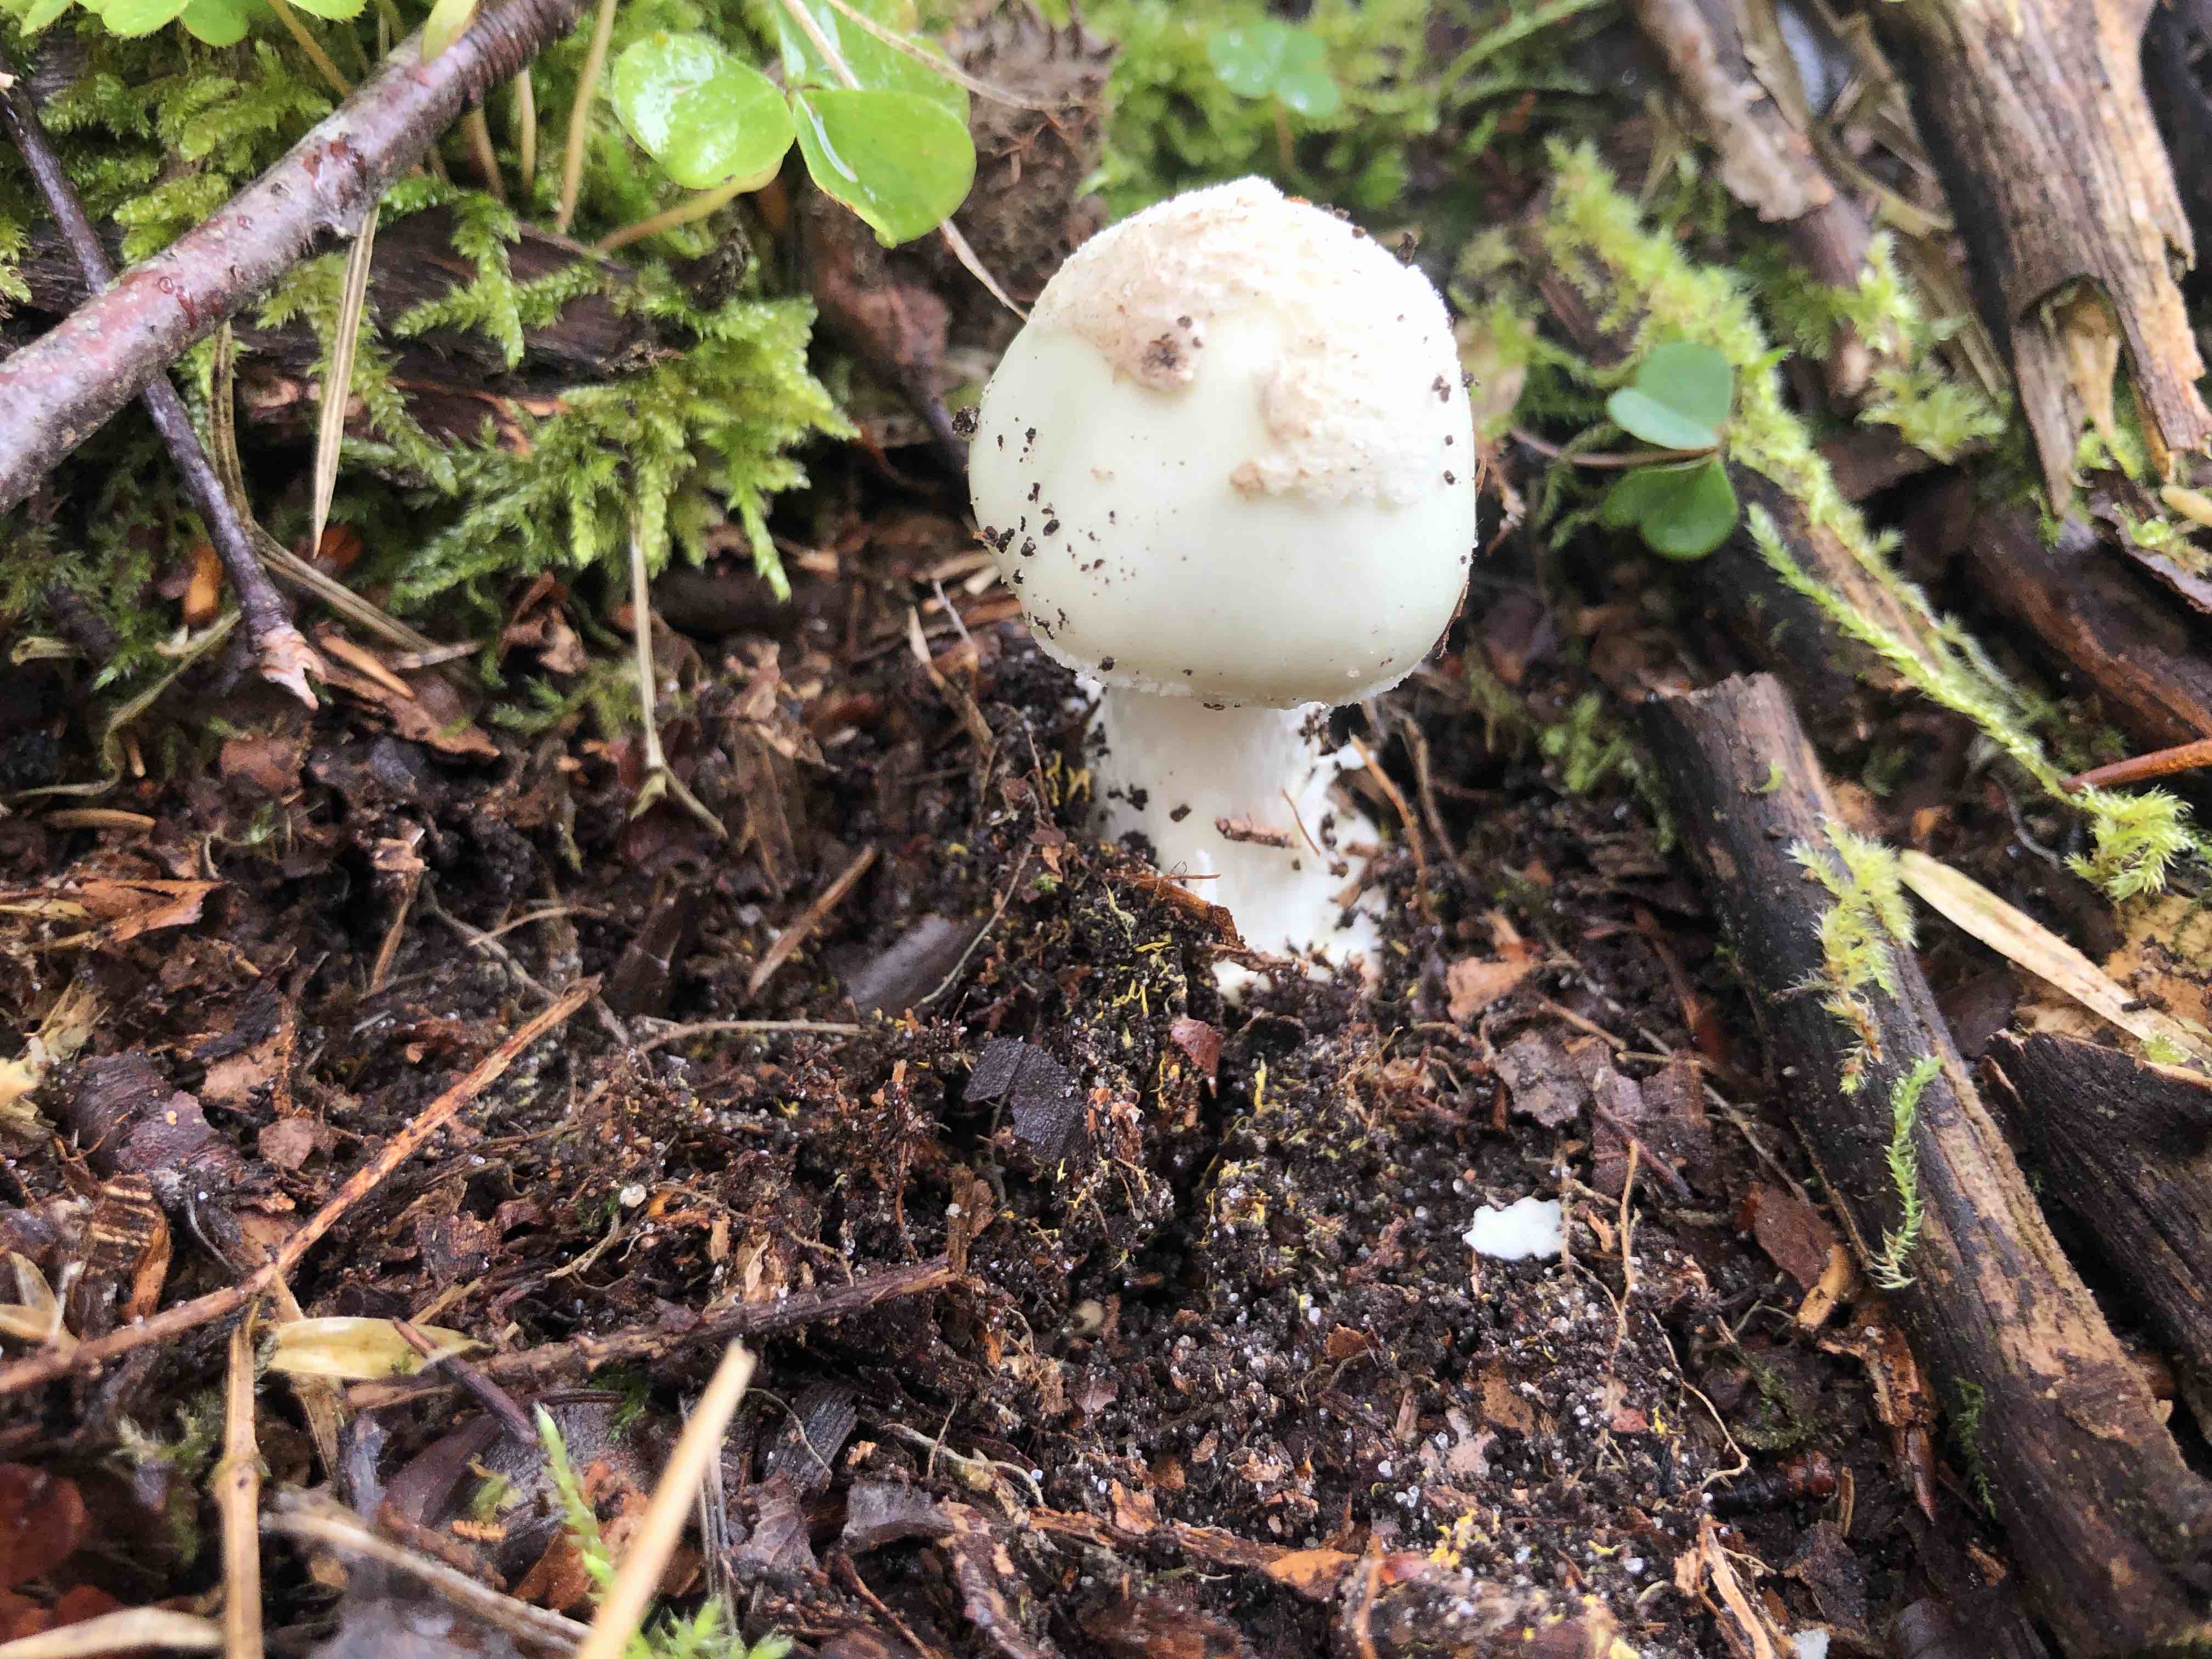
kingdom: Fungi
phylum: Basidiomycota
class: Agaricomycetes
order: Agaricales
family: Amanitaceae
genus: Amanita
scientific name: Amanita citrina
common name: kugleknoldet fluesvamp
